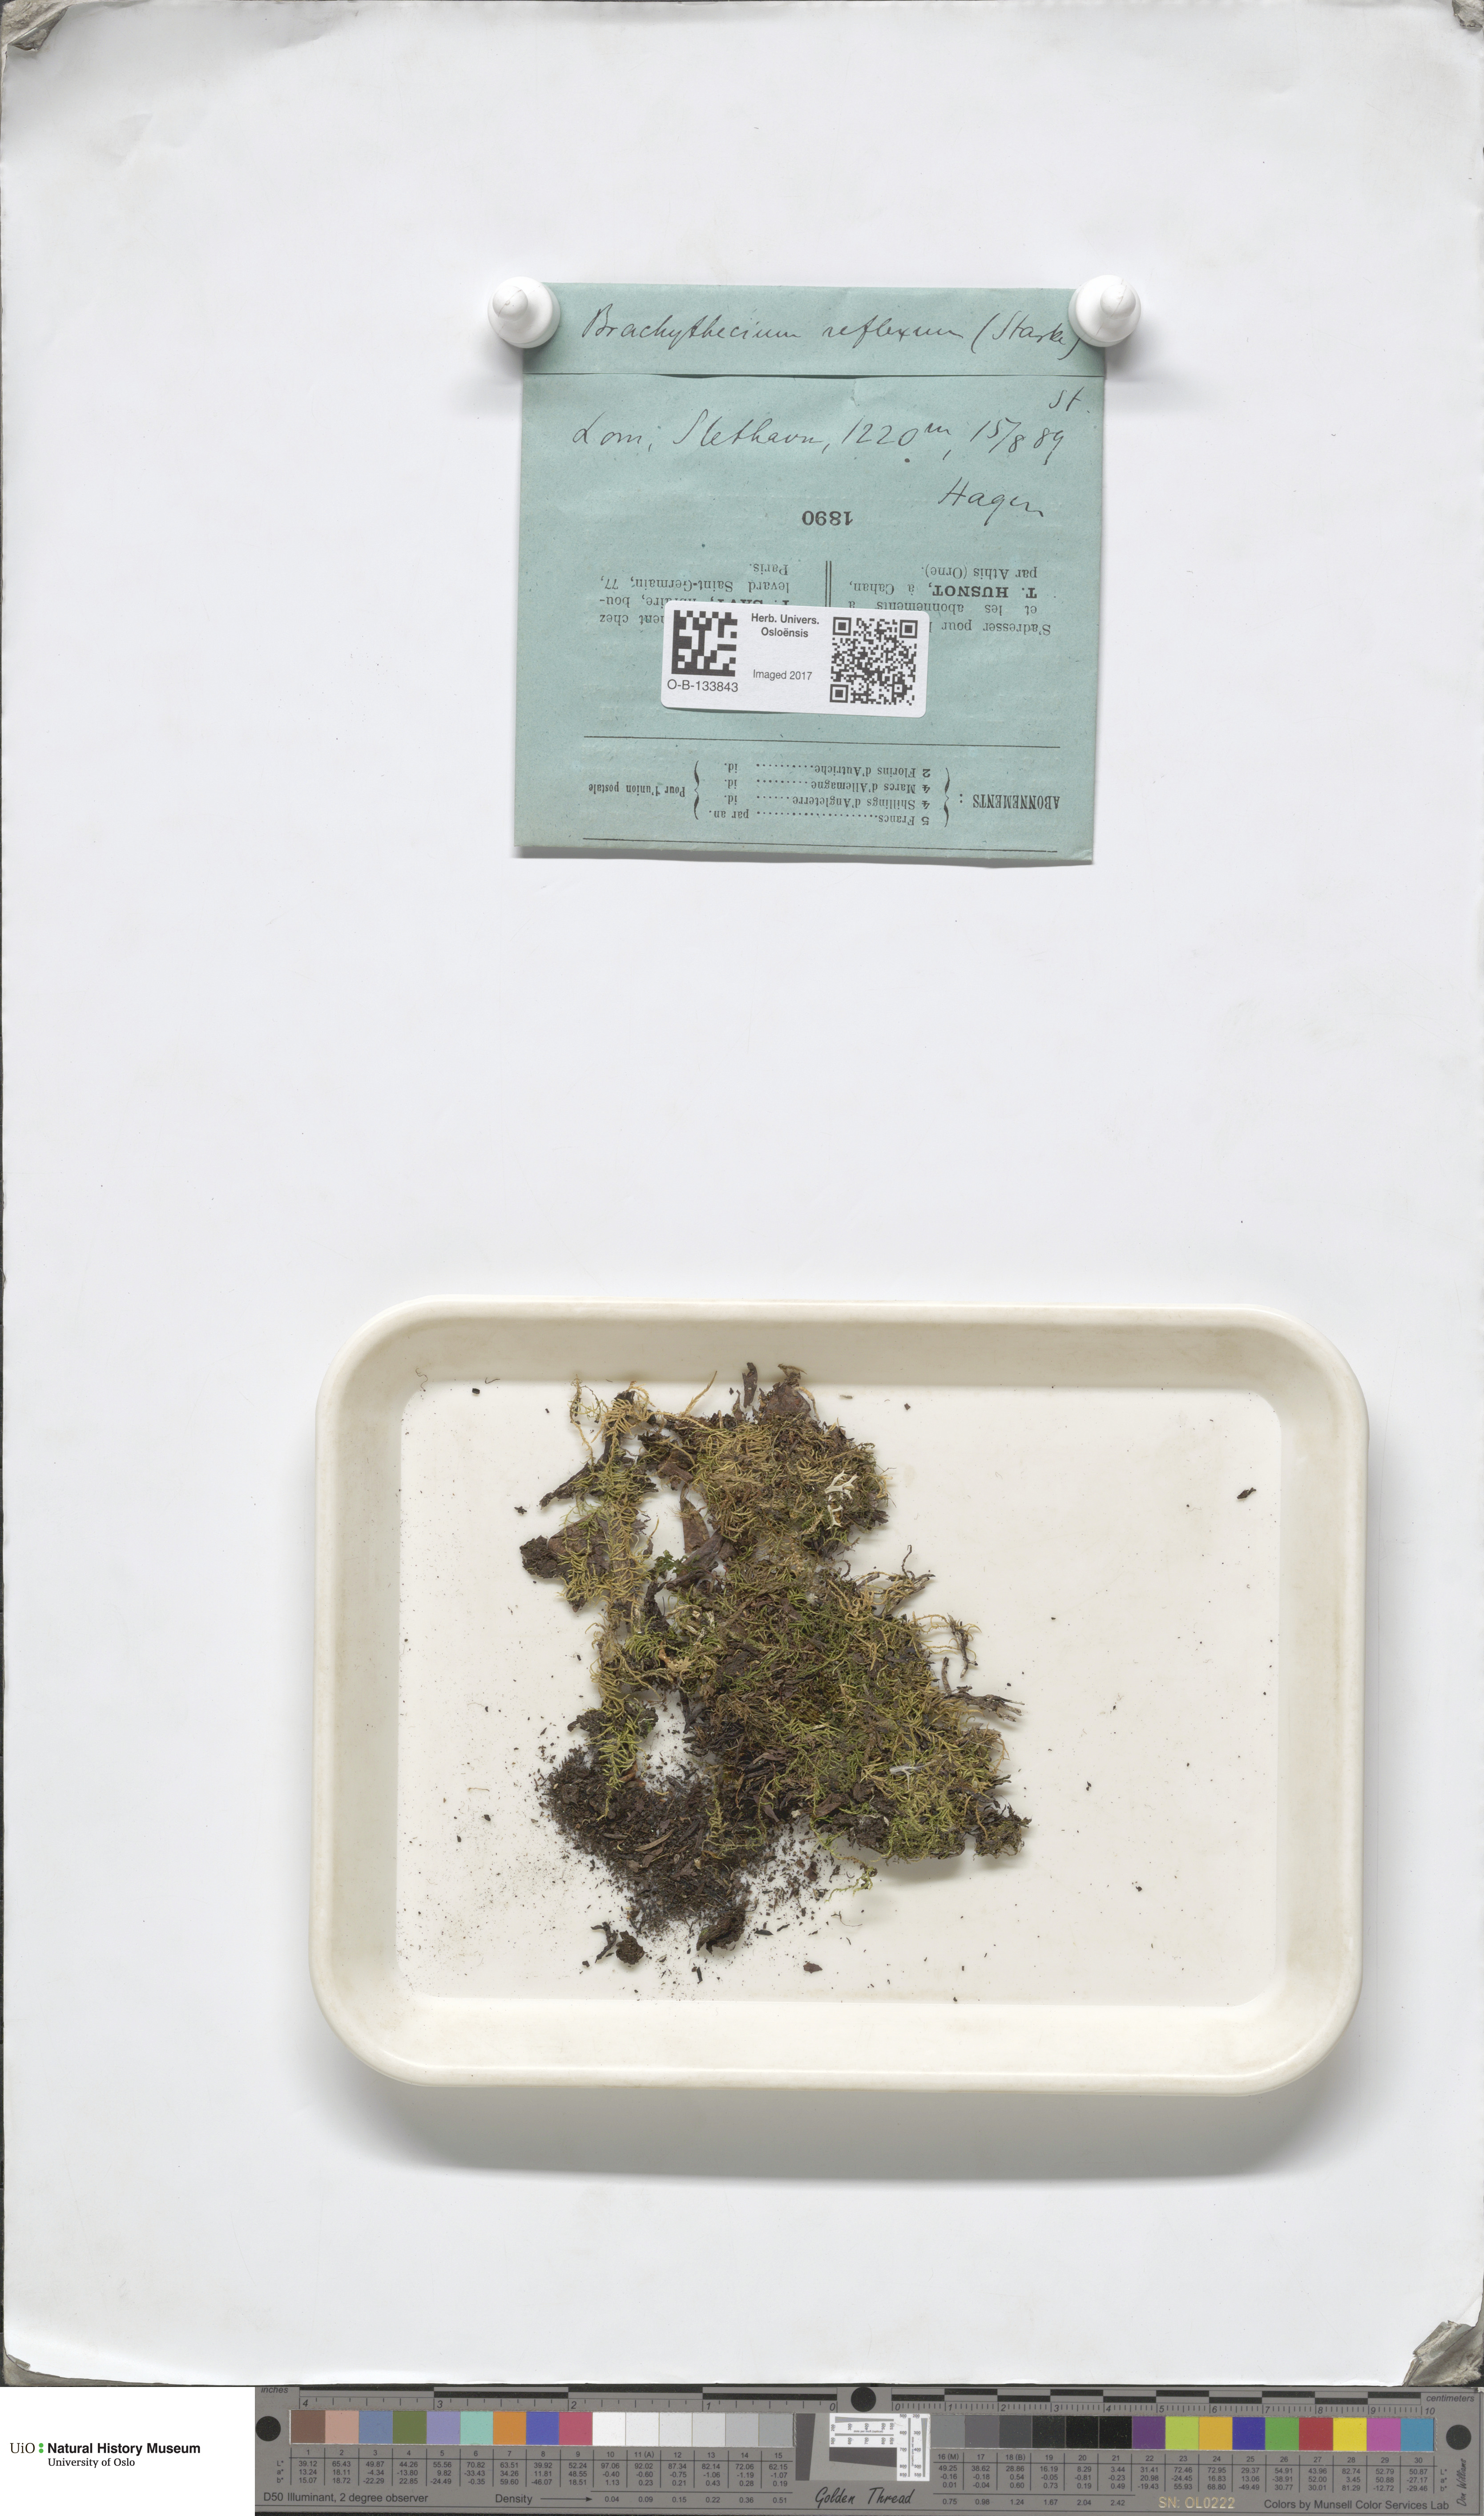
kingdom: Plantae
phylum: Bryophyta
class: Bryopsida
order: Hypnales
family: Brachytheciaceae
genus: Sciuro-hypnum
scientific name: Sciuro-hypnum reflexum
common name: Reflexed feather-moss
